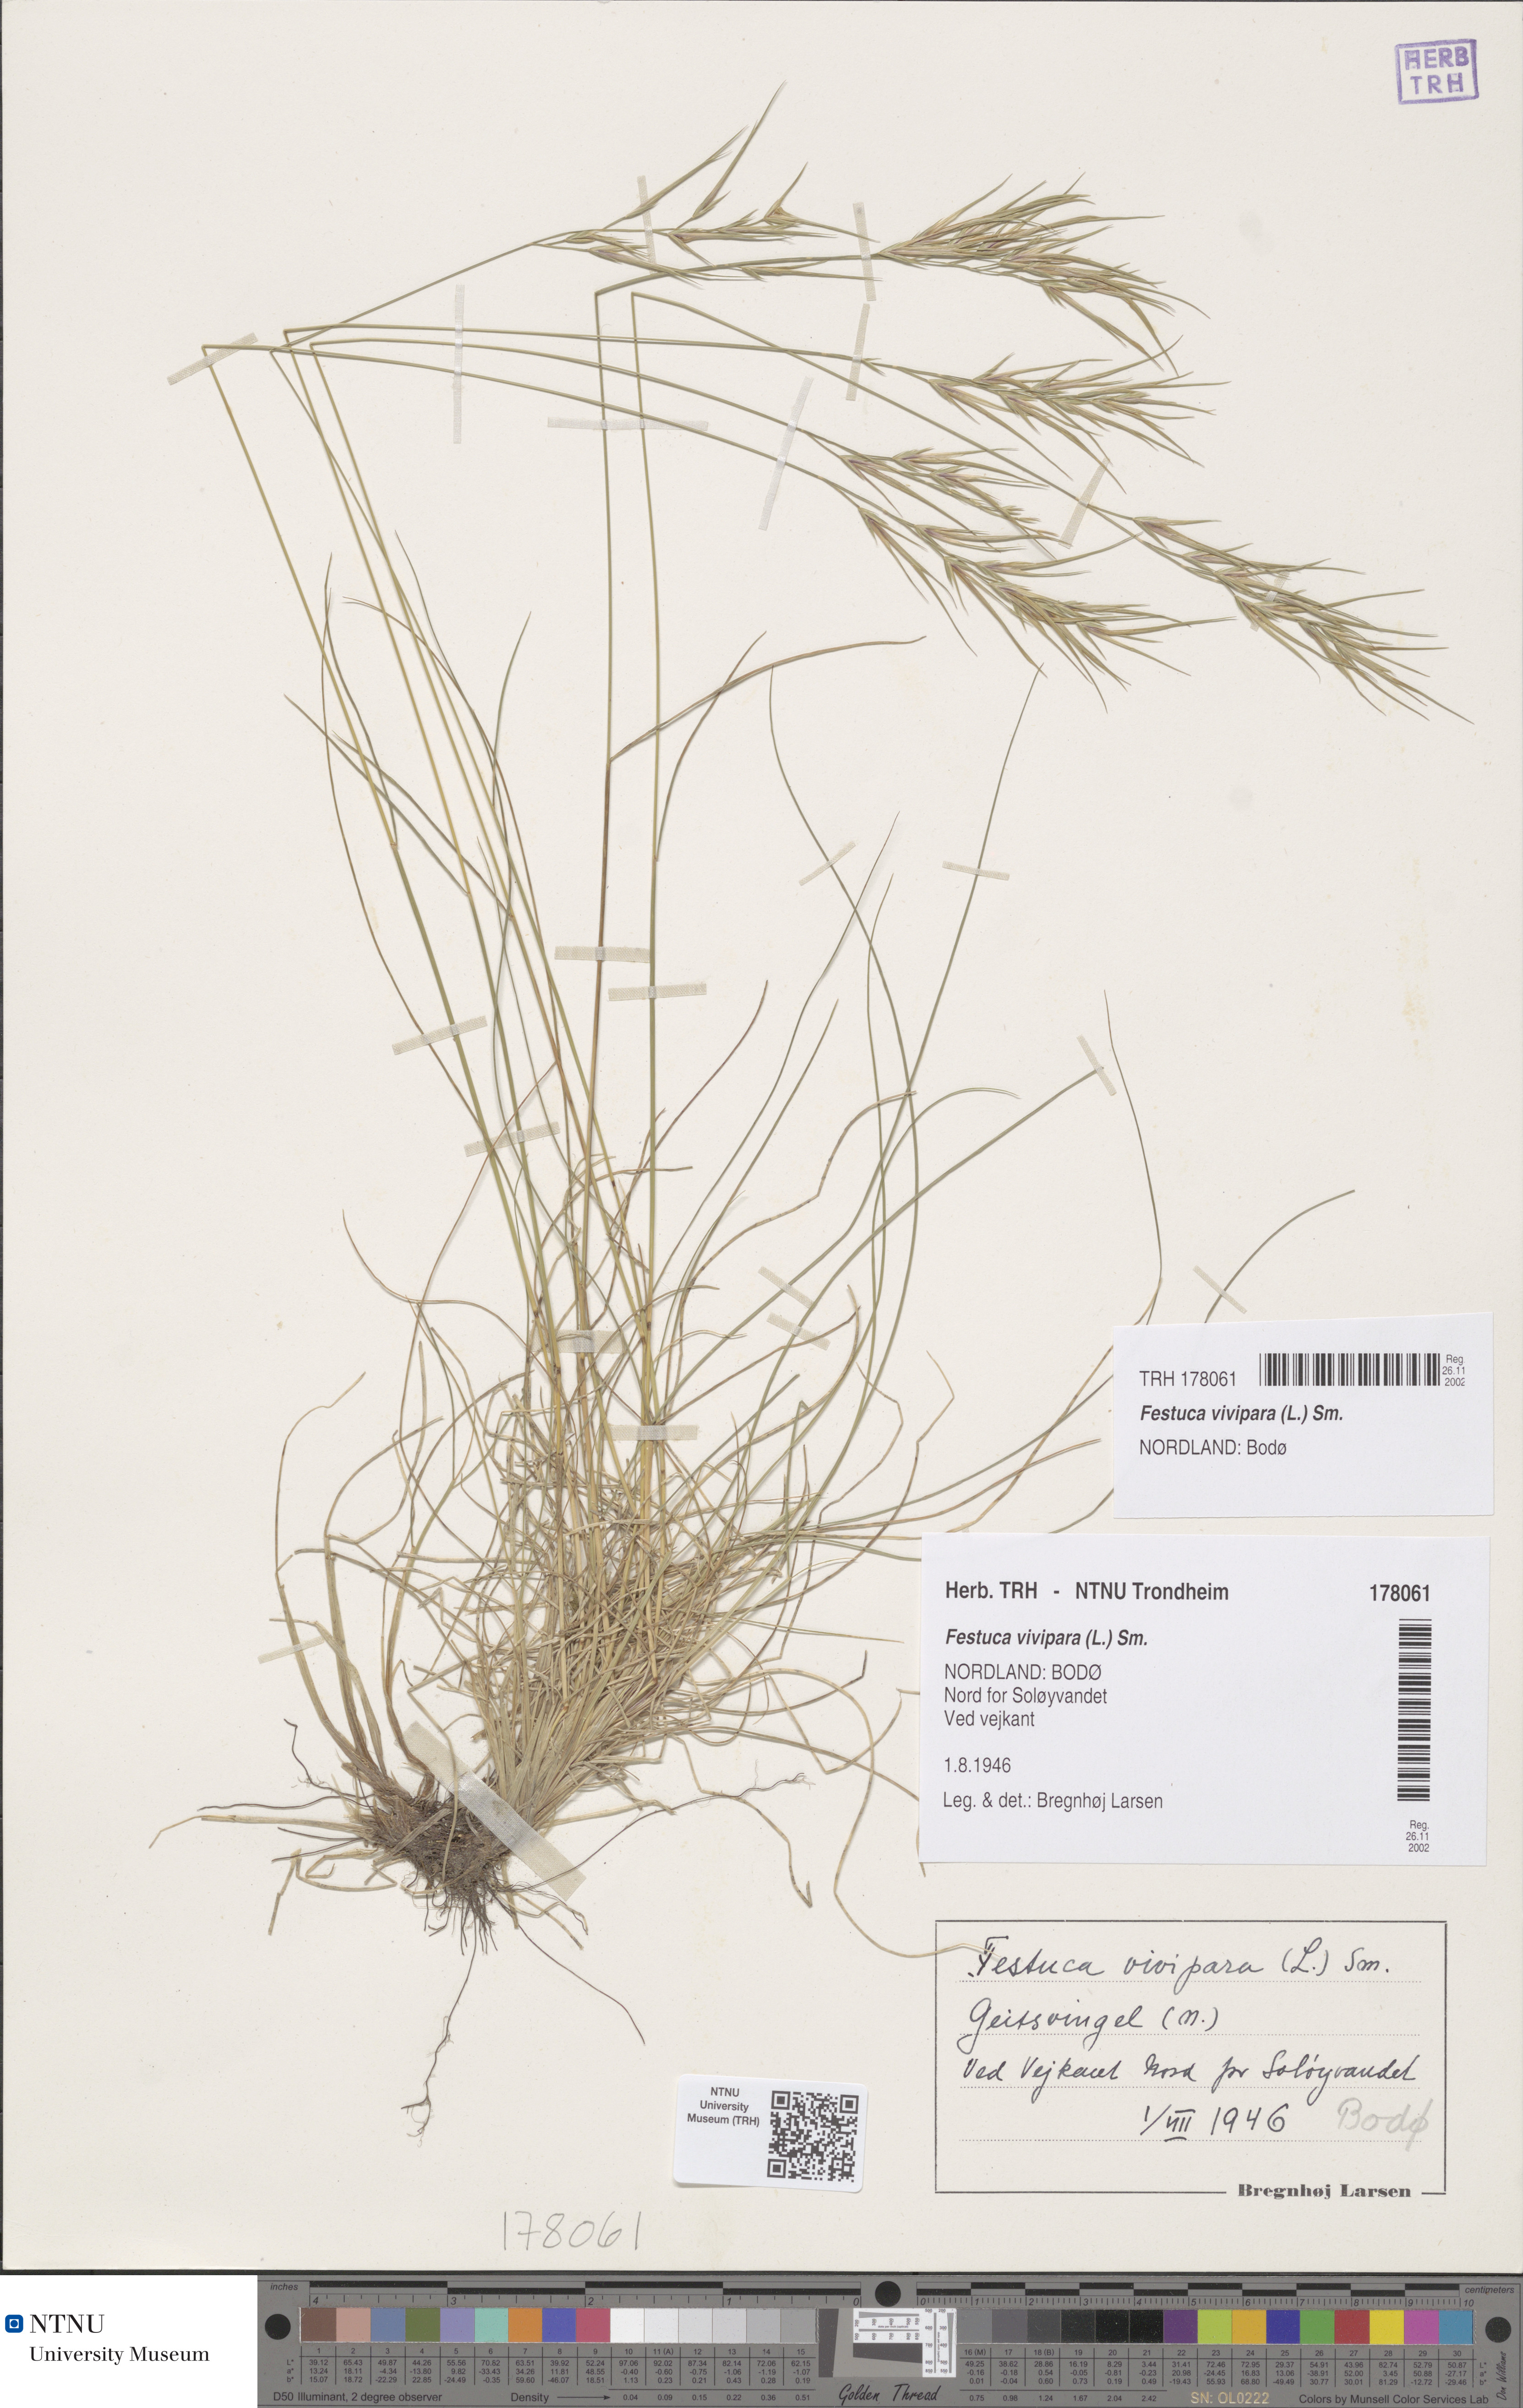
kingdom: Plantae
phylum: Tracheophyta
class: Liliopsida
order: Poales
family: Poaceae
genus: Festuca
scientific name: Festuca vivipara
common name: Viviparous sheep's-fescue
